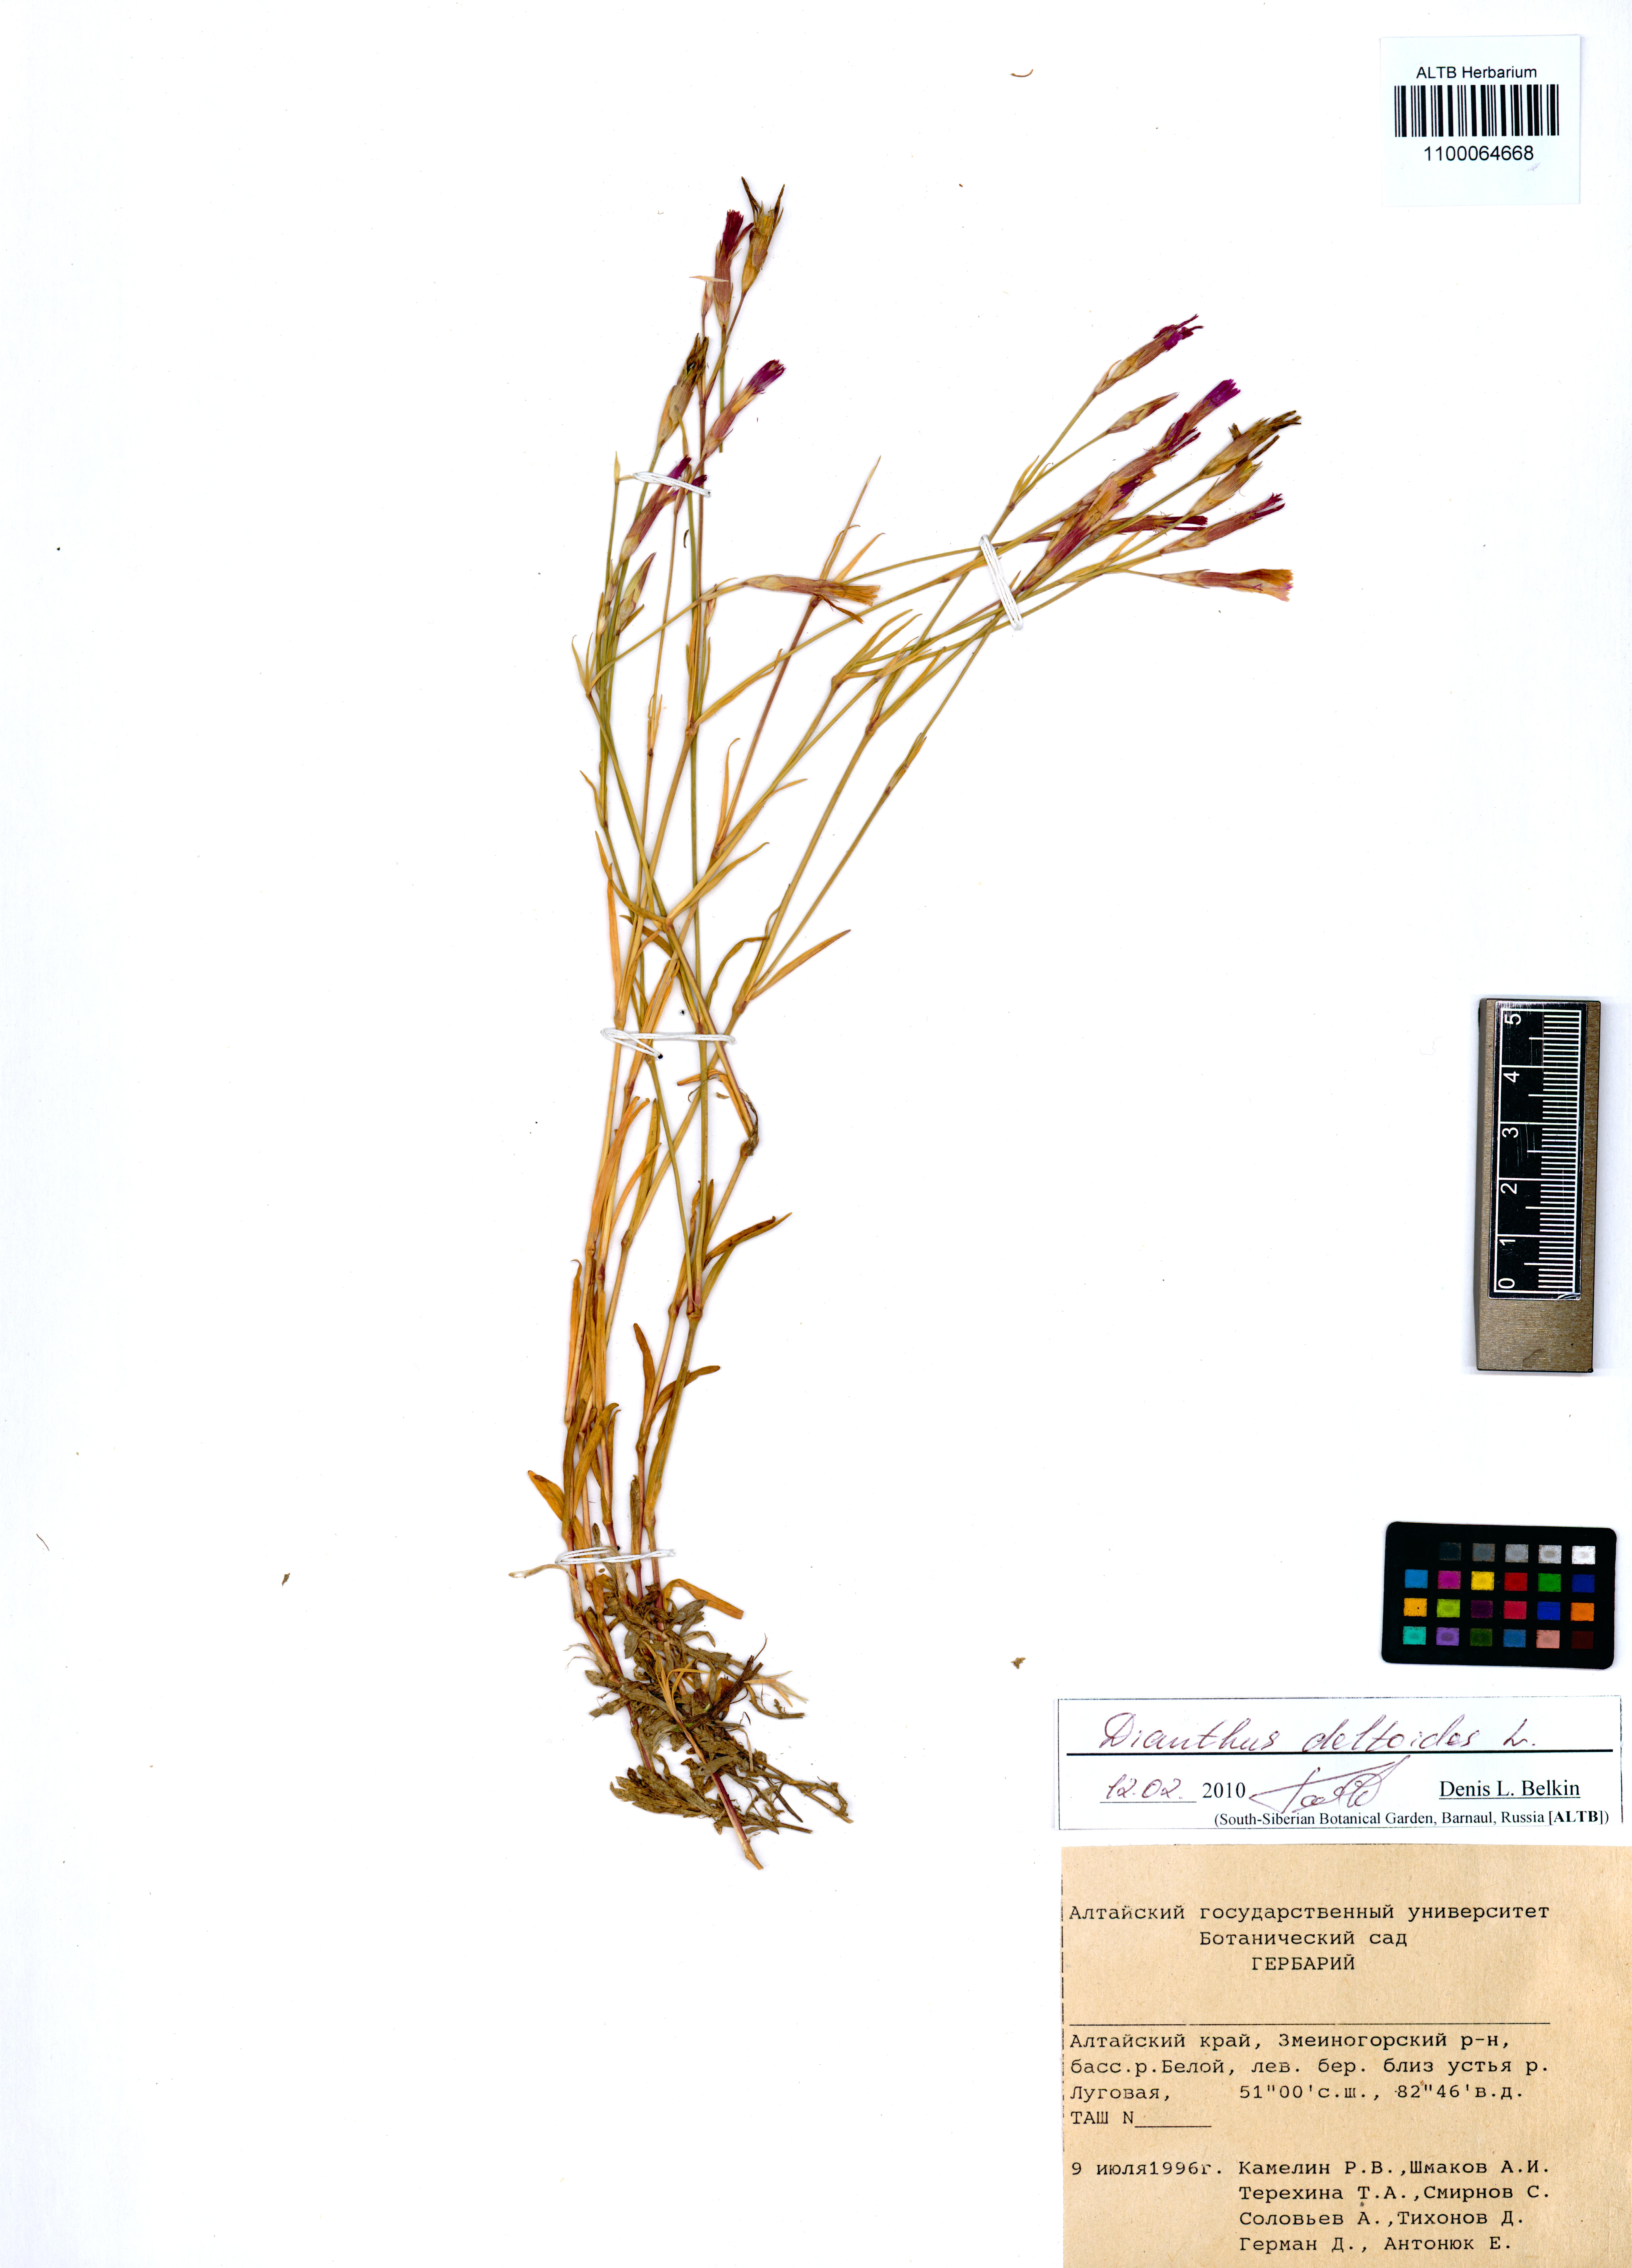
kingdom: Plantae
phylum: Tracheophyta
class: Magnoliopsida
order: Caryophyllales
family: Caryophyllaceae
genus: Dianthus
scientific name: Dianthus deltoides
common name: Maiden pink
